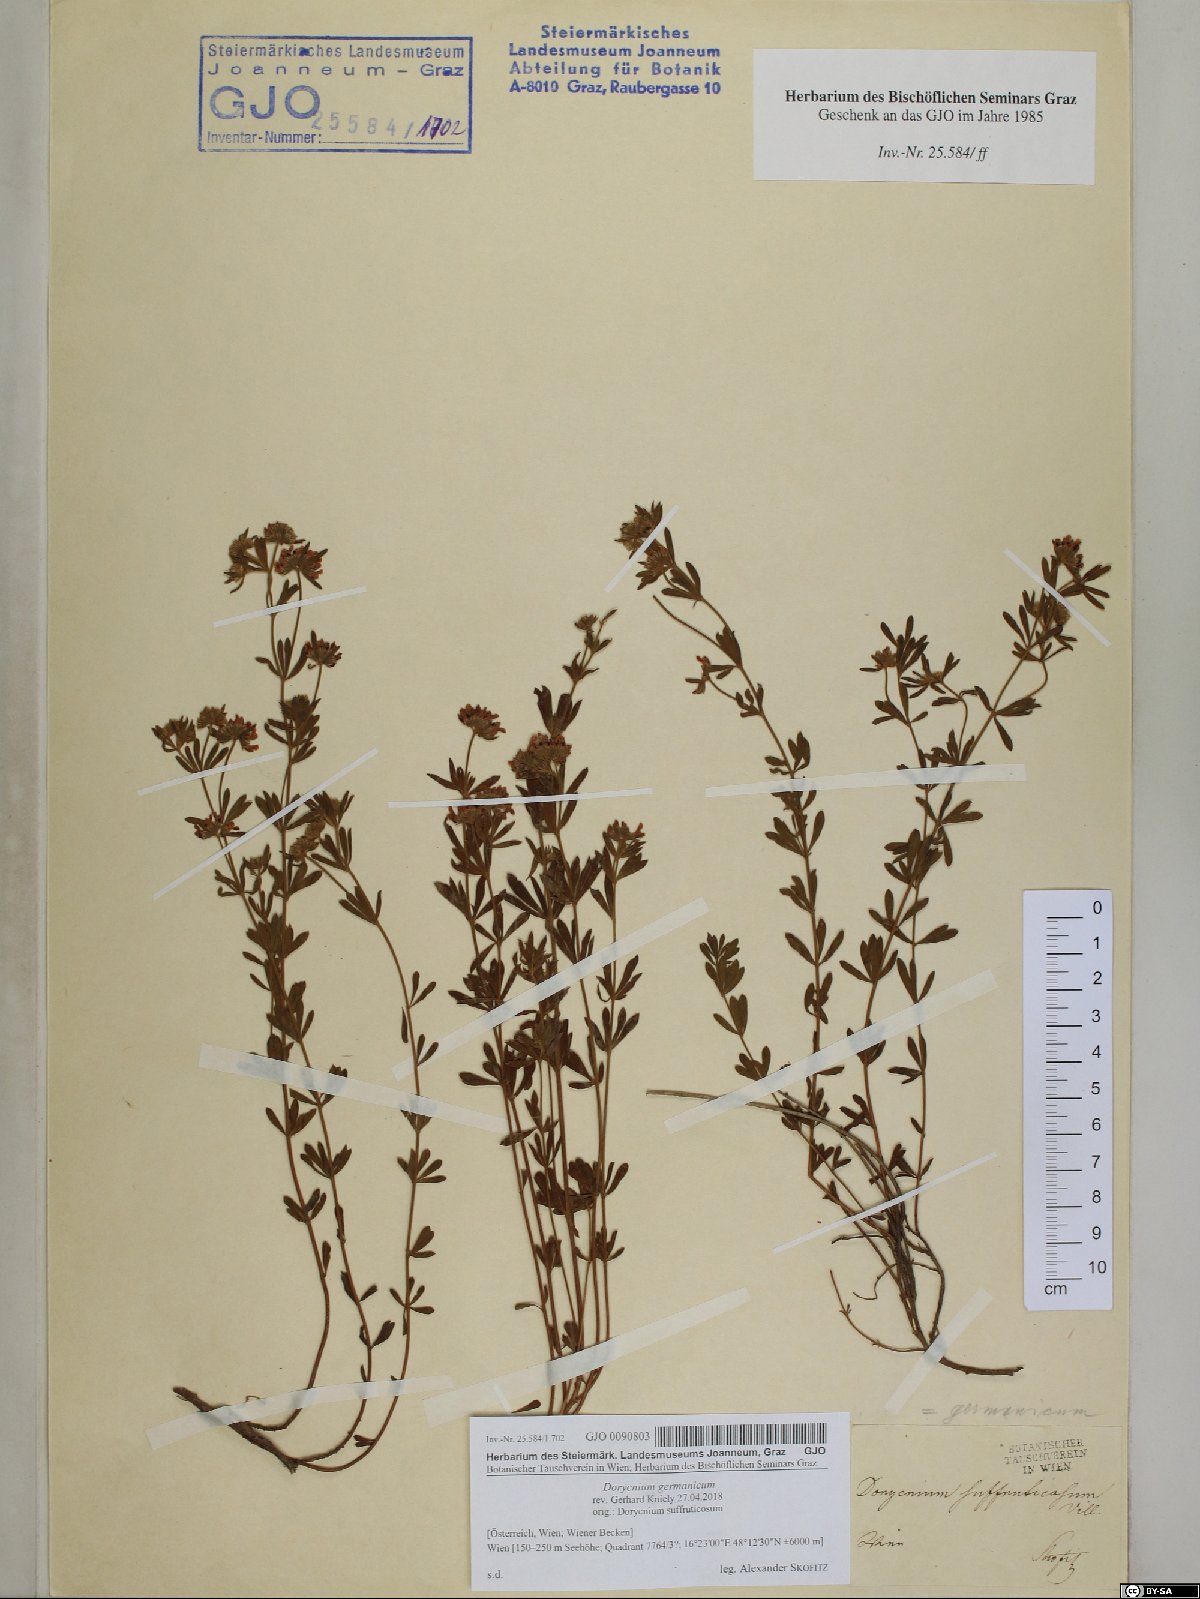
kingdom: Plantae
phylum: Tracheophyta
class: Magnoliopsida
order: Fabales
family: Fabaceae
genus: Lotus
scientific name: Lotus germanicus
